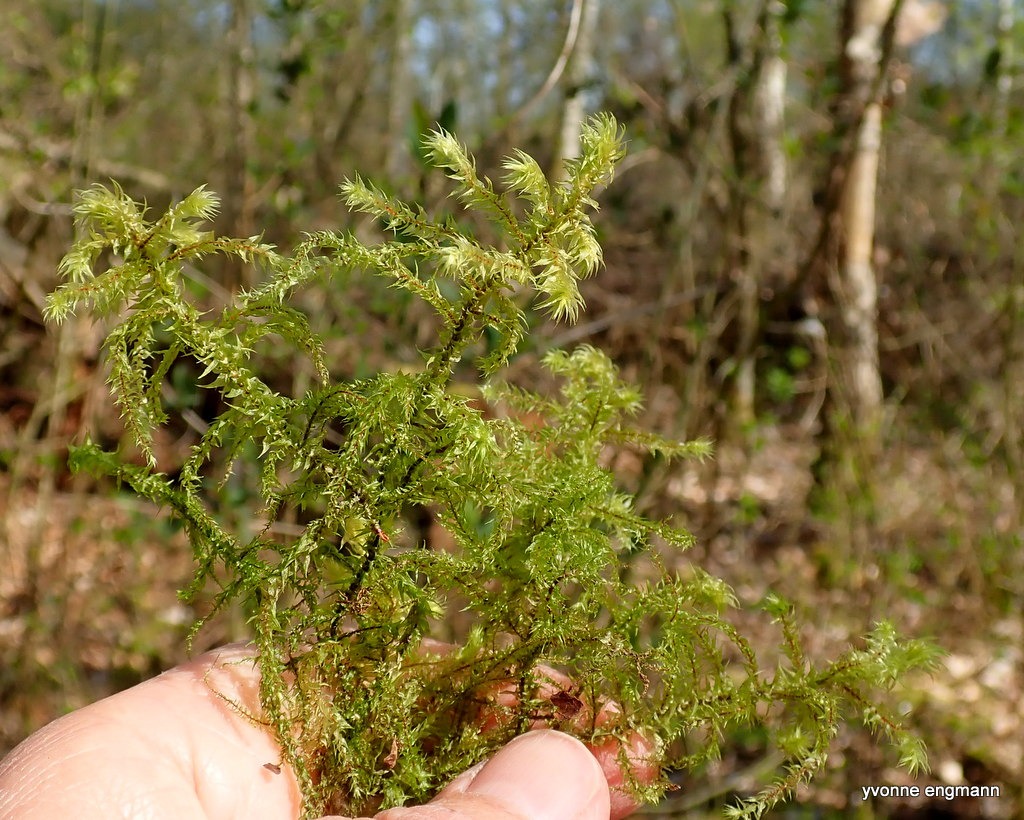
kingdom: Plantae
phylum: Bryophyta
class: Bryopsida
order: Hypnales
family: Hylocomiaceae
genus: Hylocomiadelphus
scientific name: Hylocomiadelphus triquetrus
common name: Stor kransemos
